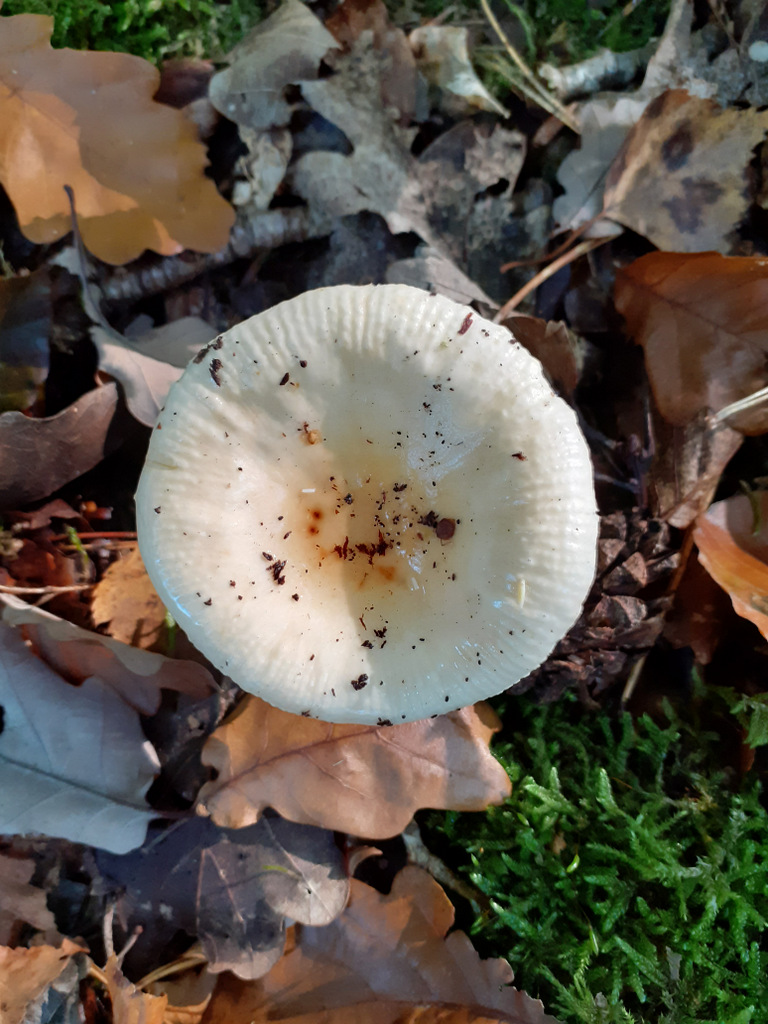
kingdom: Fungi
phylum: Basidiomycota
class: Agaricomycetes
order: Russulales
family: Russulaceae
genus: Russula
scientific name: Russula fellea
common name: galde-skørhat
